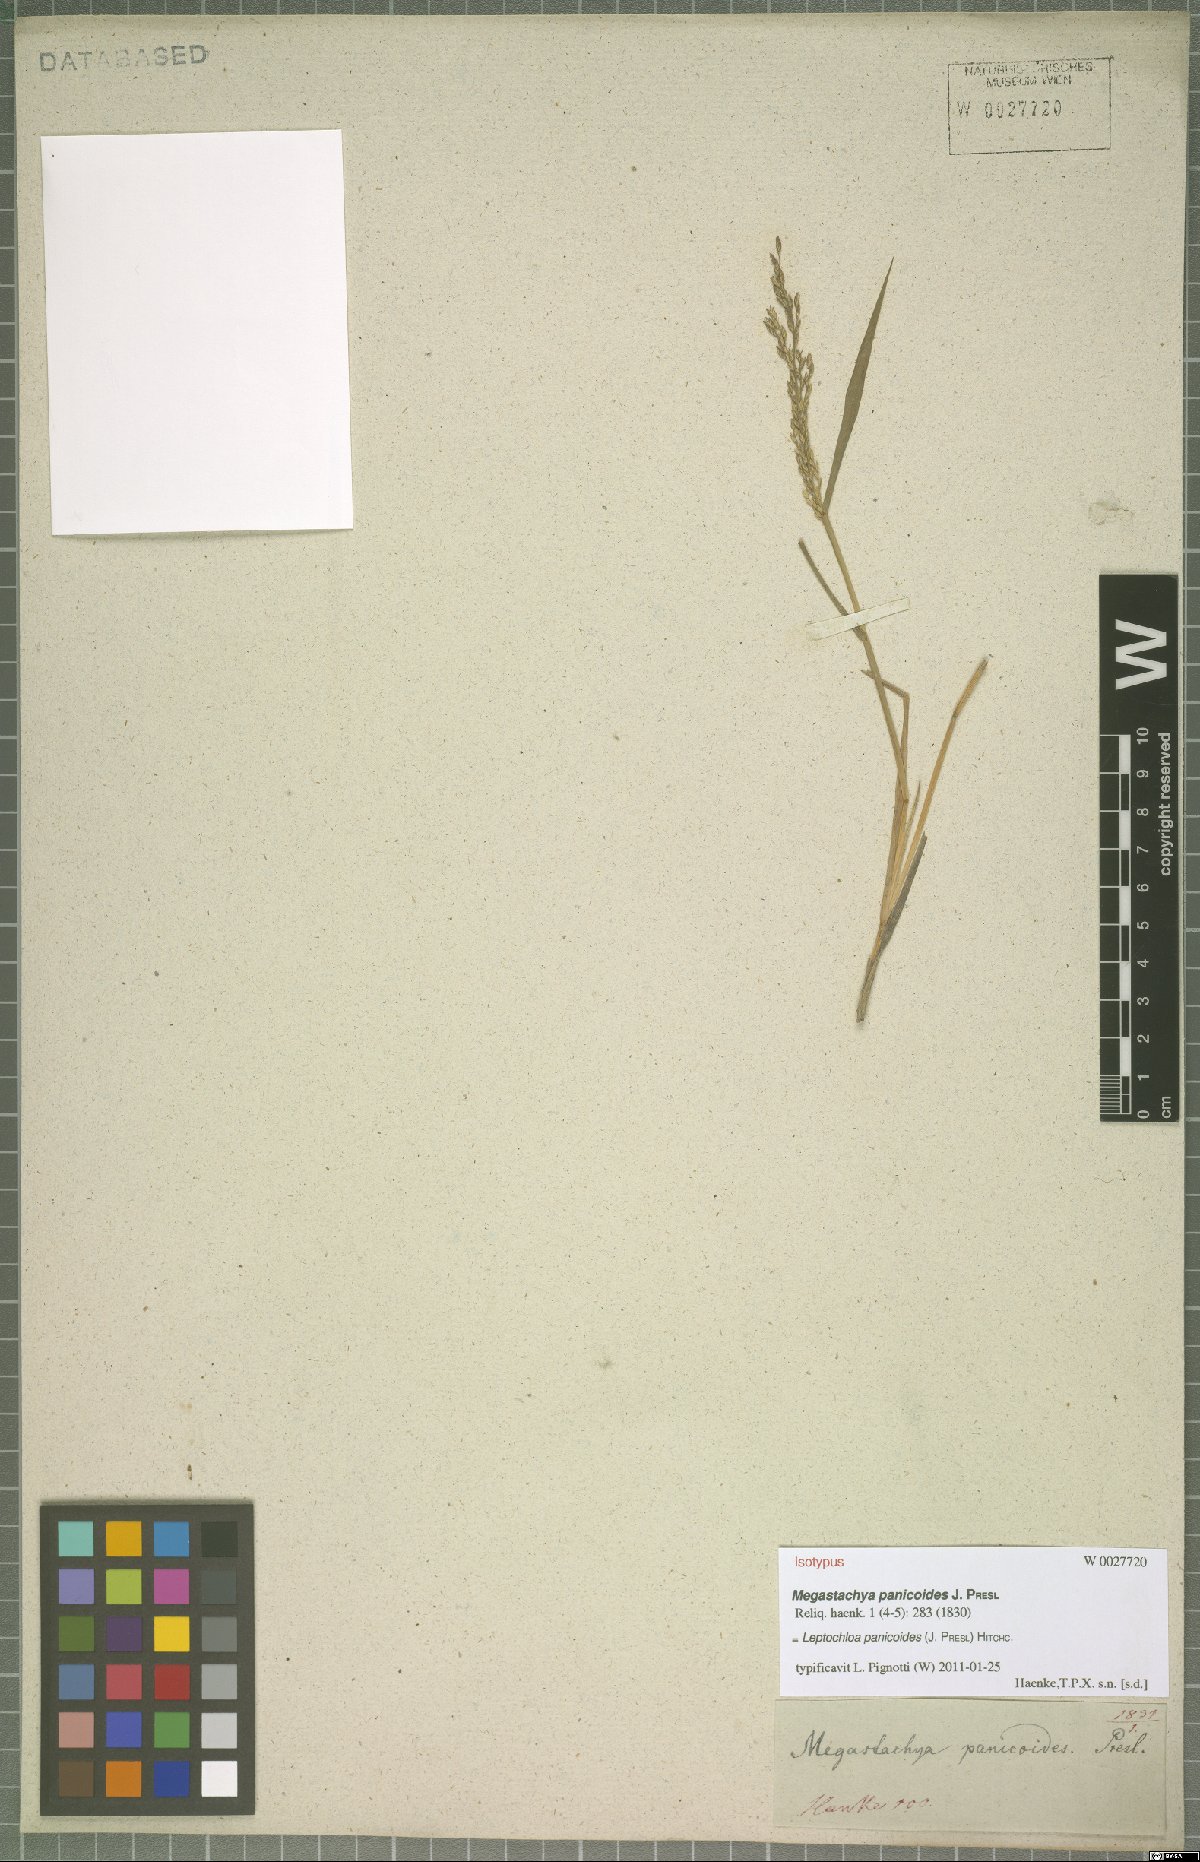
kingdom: Plantae
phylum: Tracheophyta
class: Liliopsida
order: Poales
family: Poaceae
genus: Leptochloa
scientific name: Leptochloa panicoides
